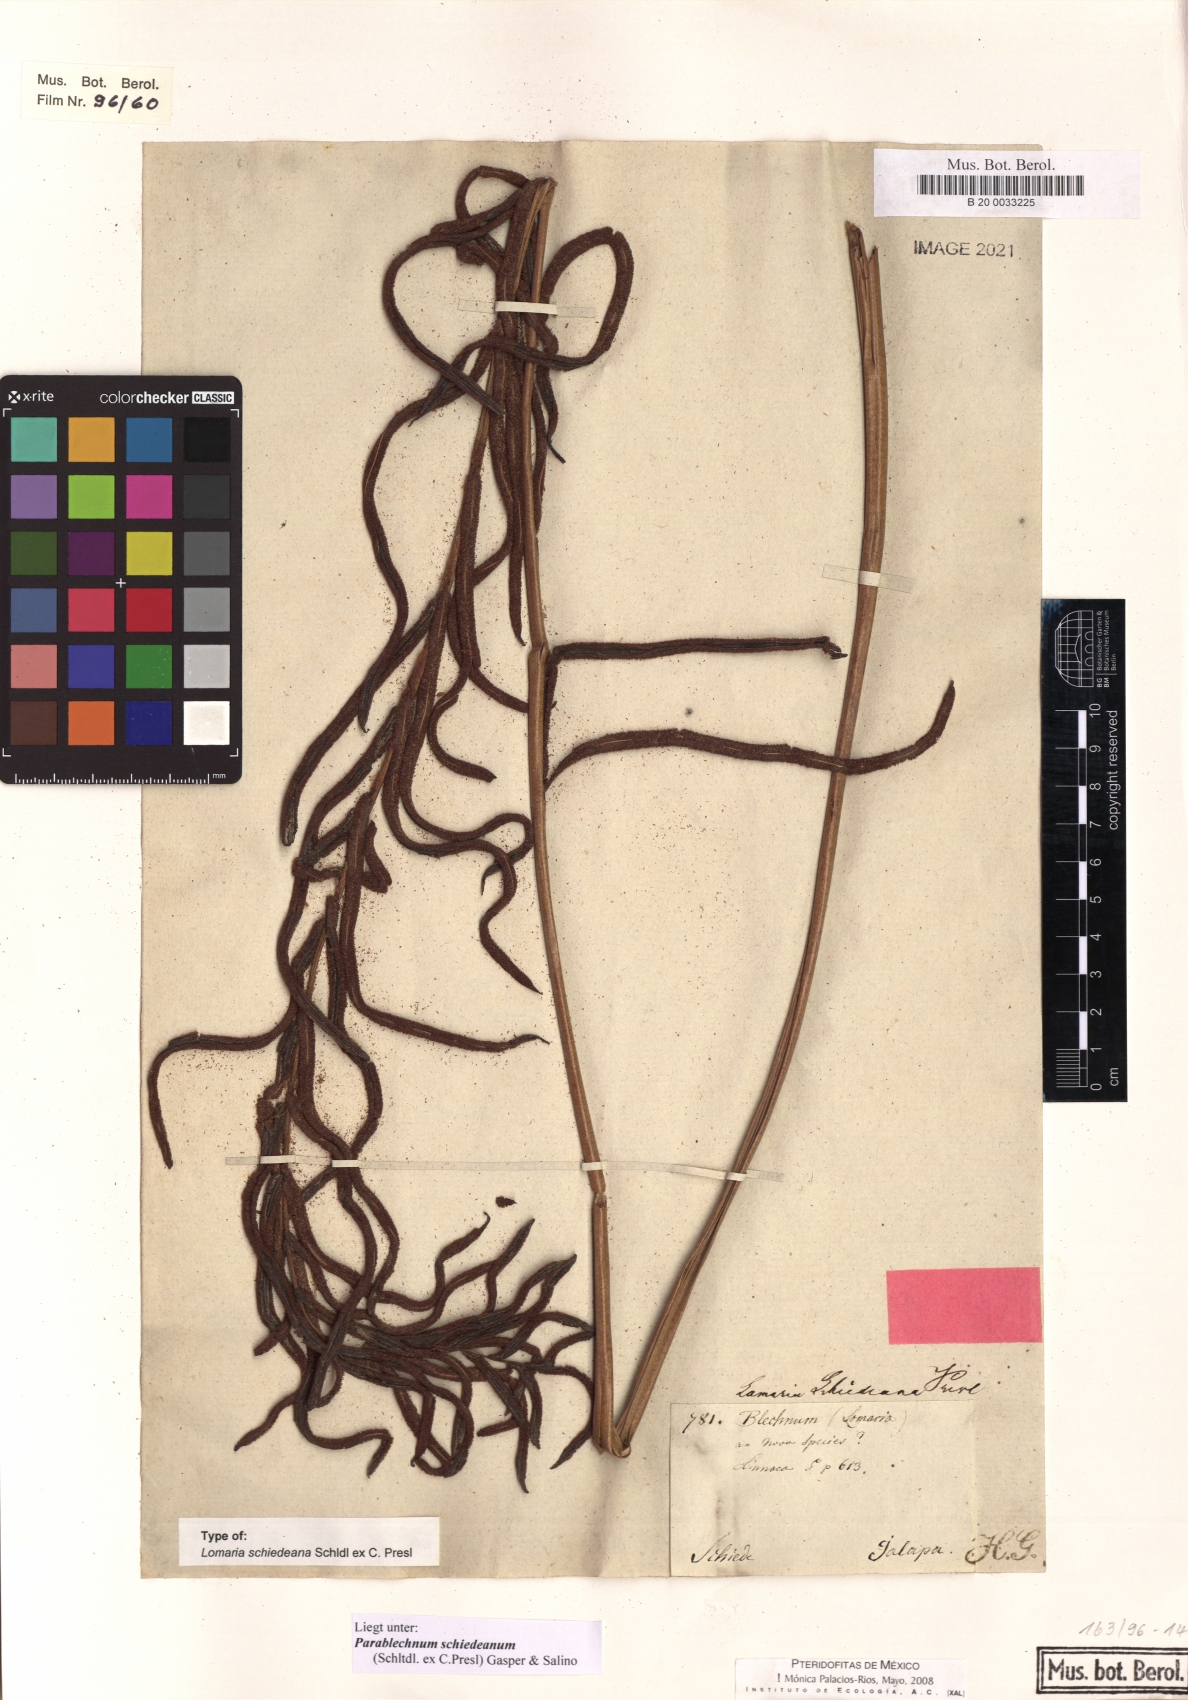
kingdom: Plantae
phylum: Tracheophyta
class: Polypodiopsida
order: Polypodiales
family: Blechnaceae
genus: Parablechnum
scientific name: Parablechnum schiedeanum
